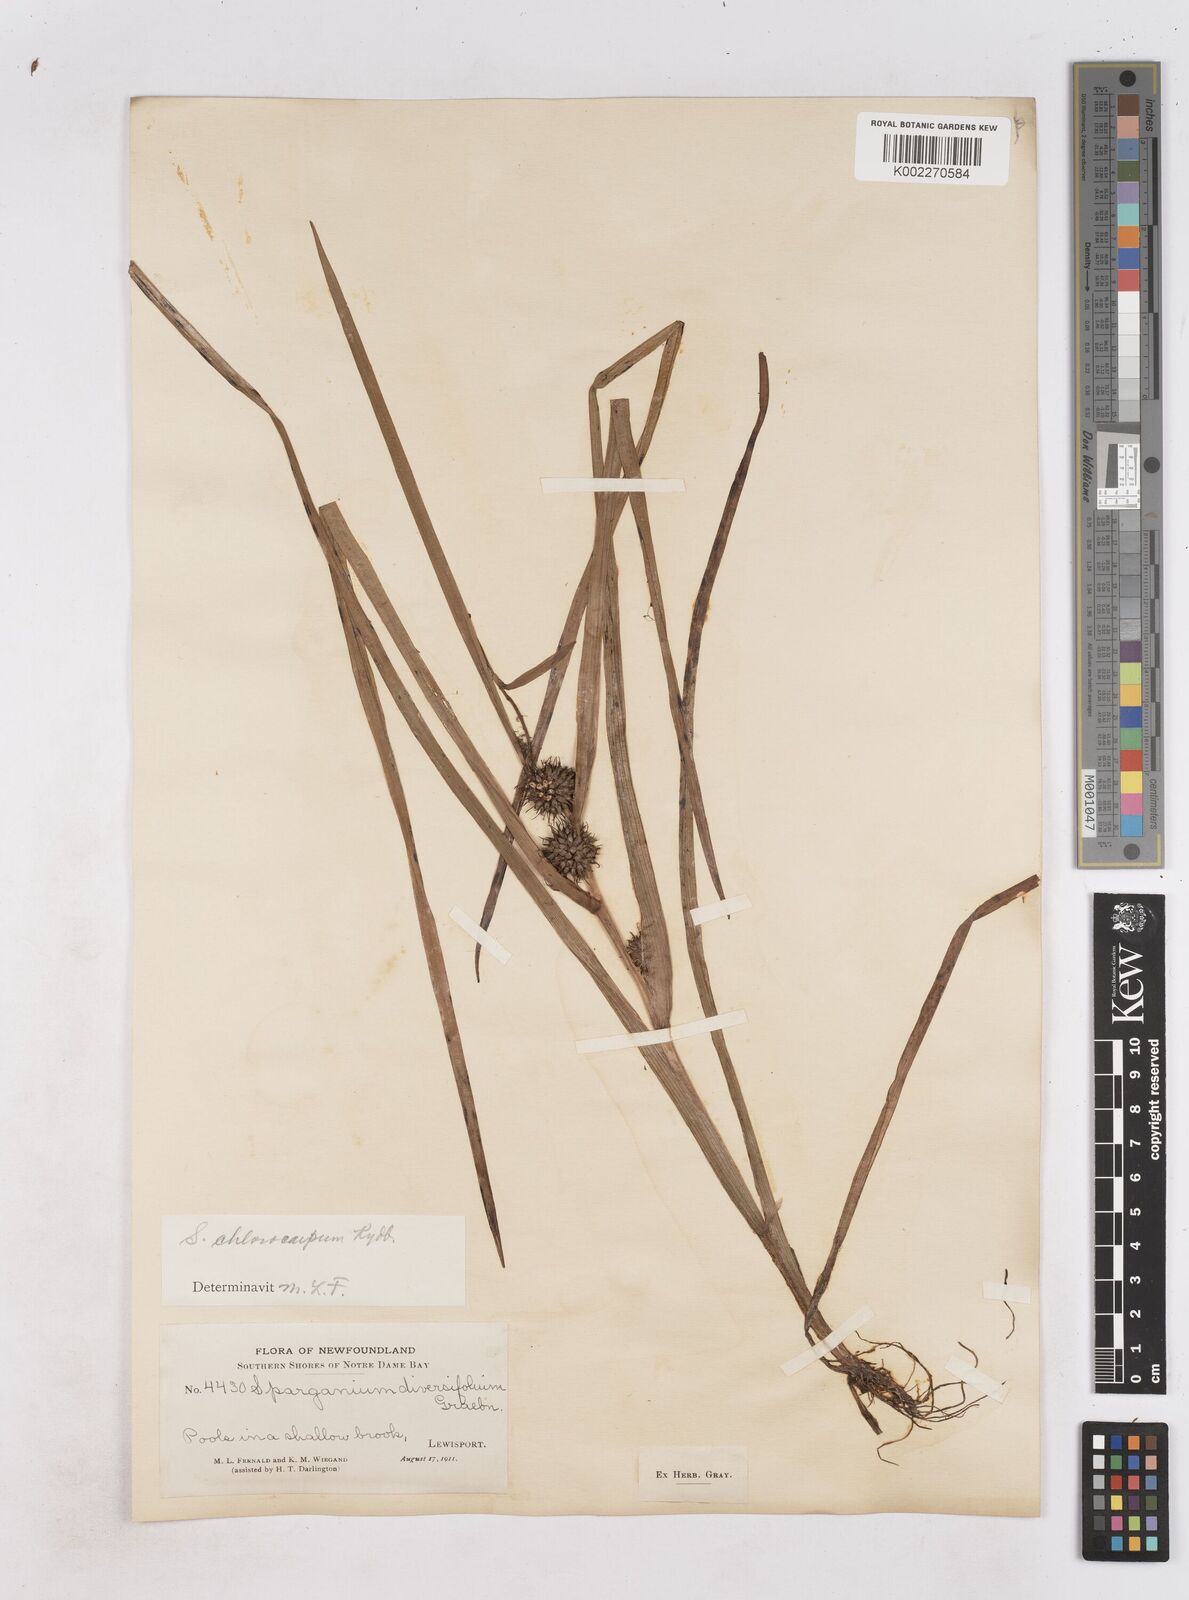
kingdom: Plantae
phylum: Tracheophyta
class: Liliopsida
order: Poales
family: Typhaceae
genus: Sparganium
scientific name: Sparganium emersum
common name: Unbranched bur-reed
